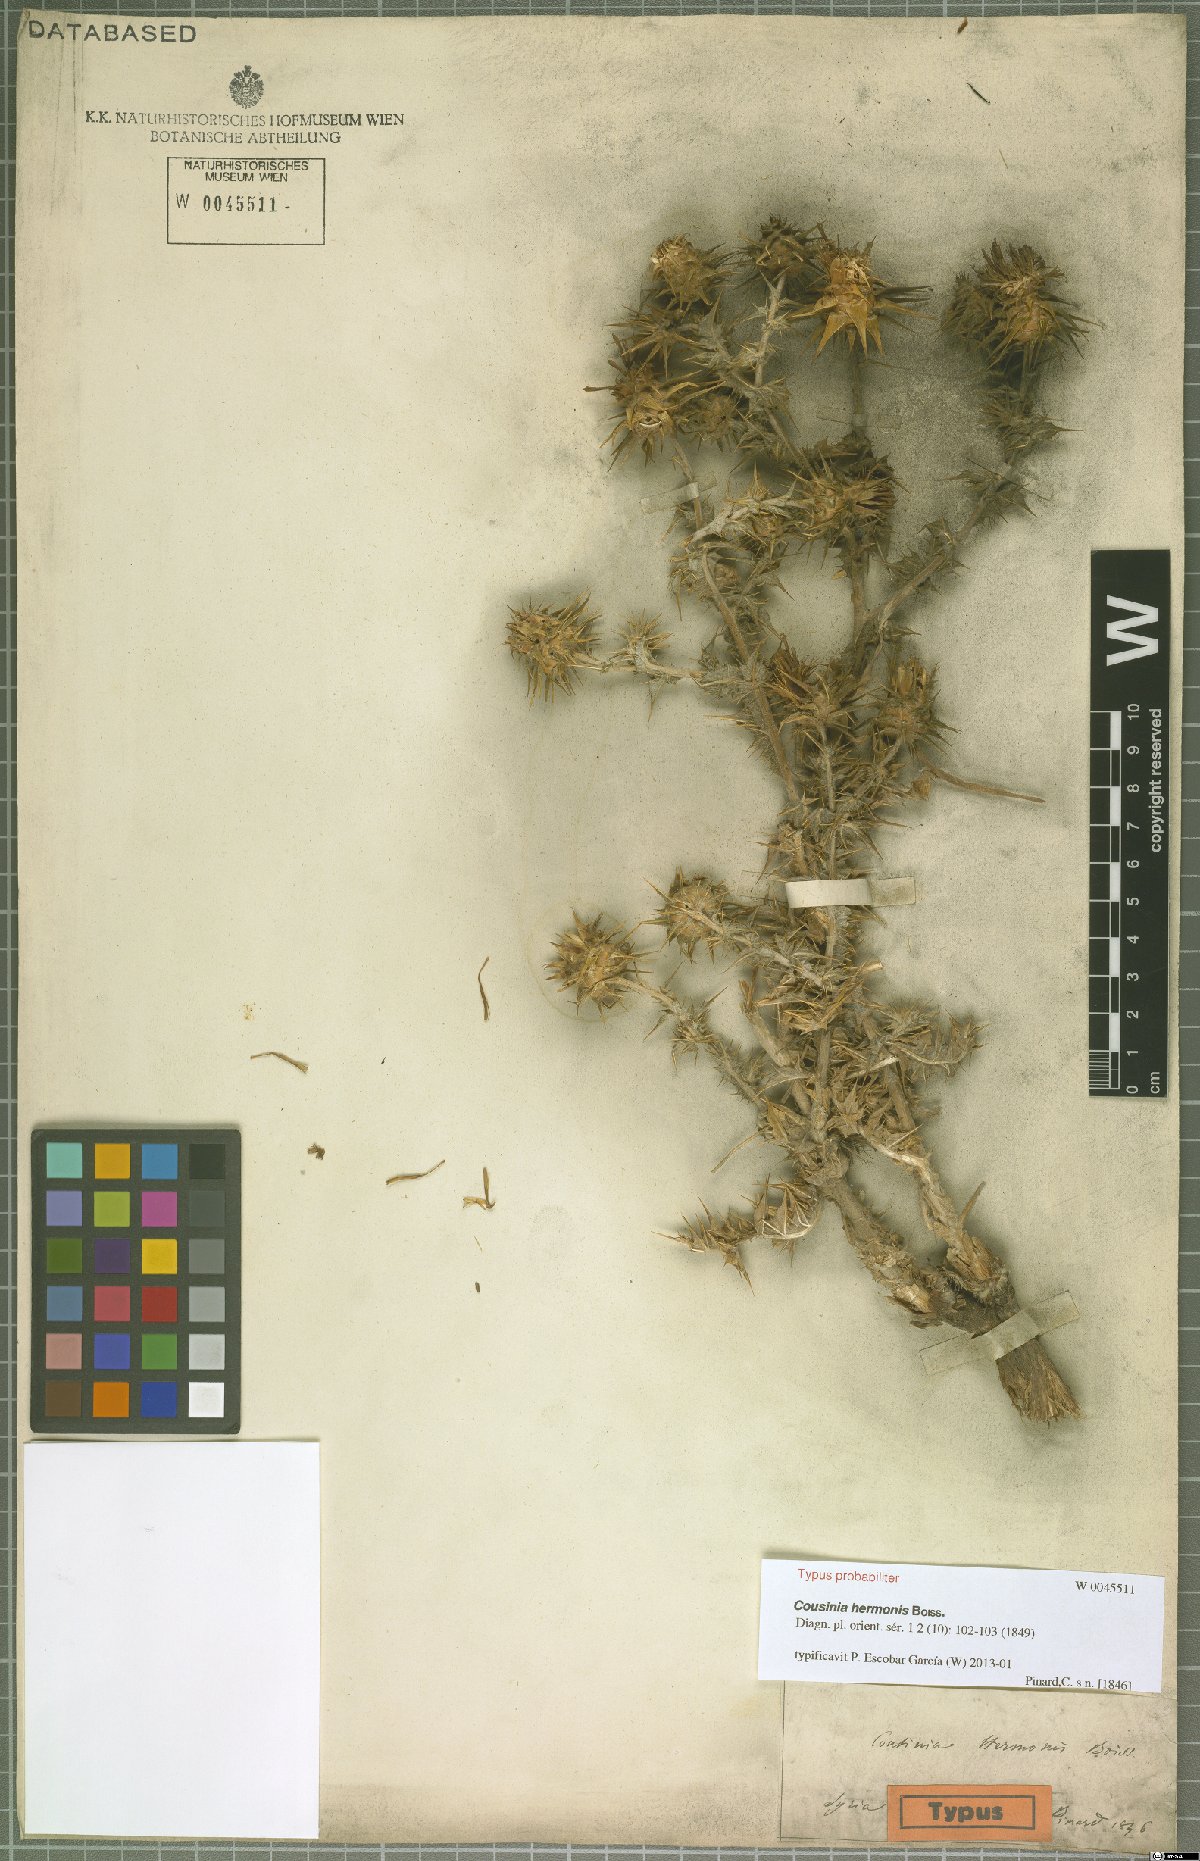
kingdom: Plantae
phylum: Tracheophyta
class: Magnoliopsida
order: Asterales
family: Asteraceae
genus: Cousinia
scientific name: Cousinia libanotica
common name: Lebanon cousinia
